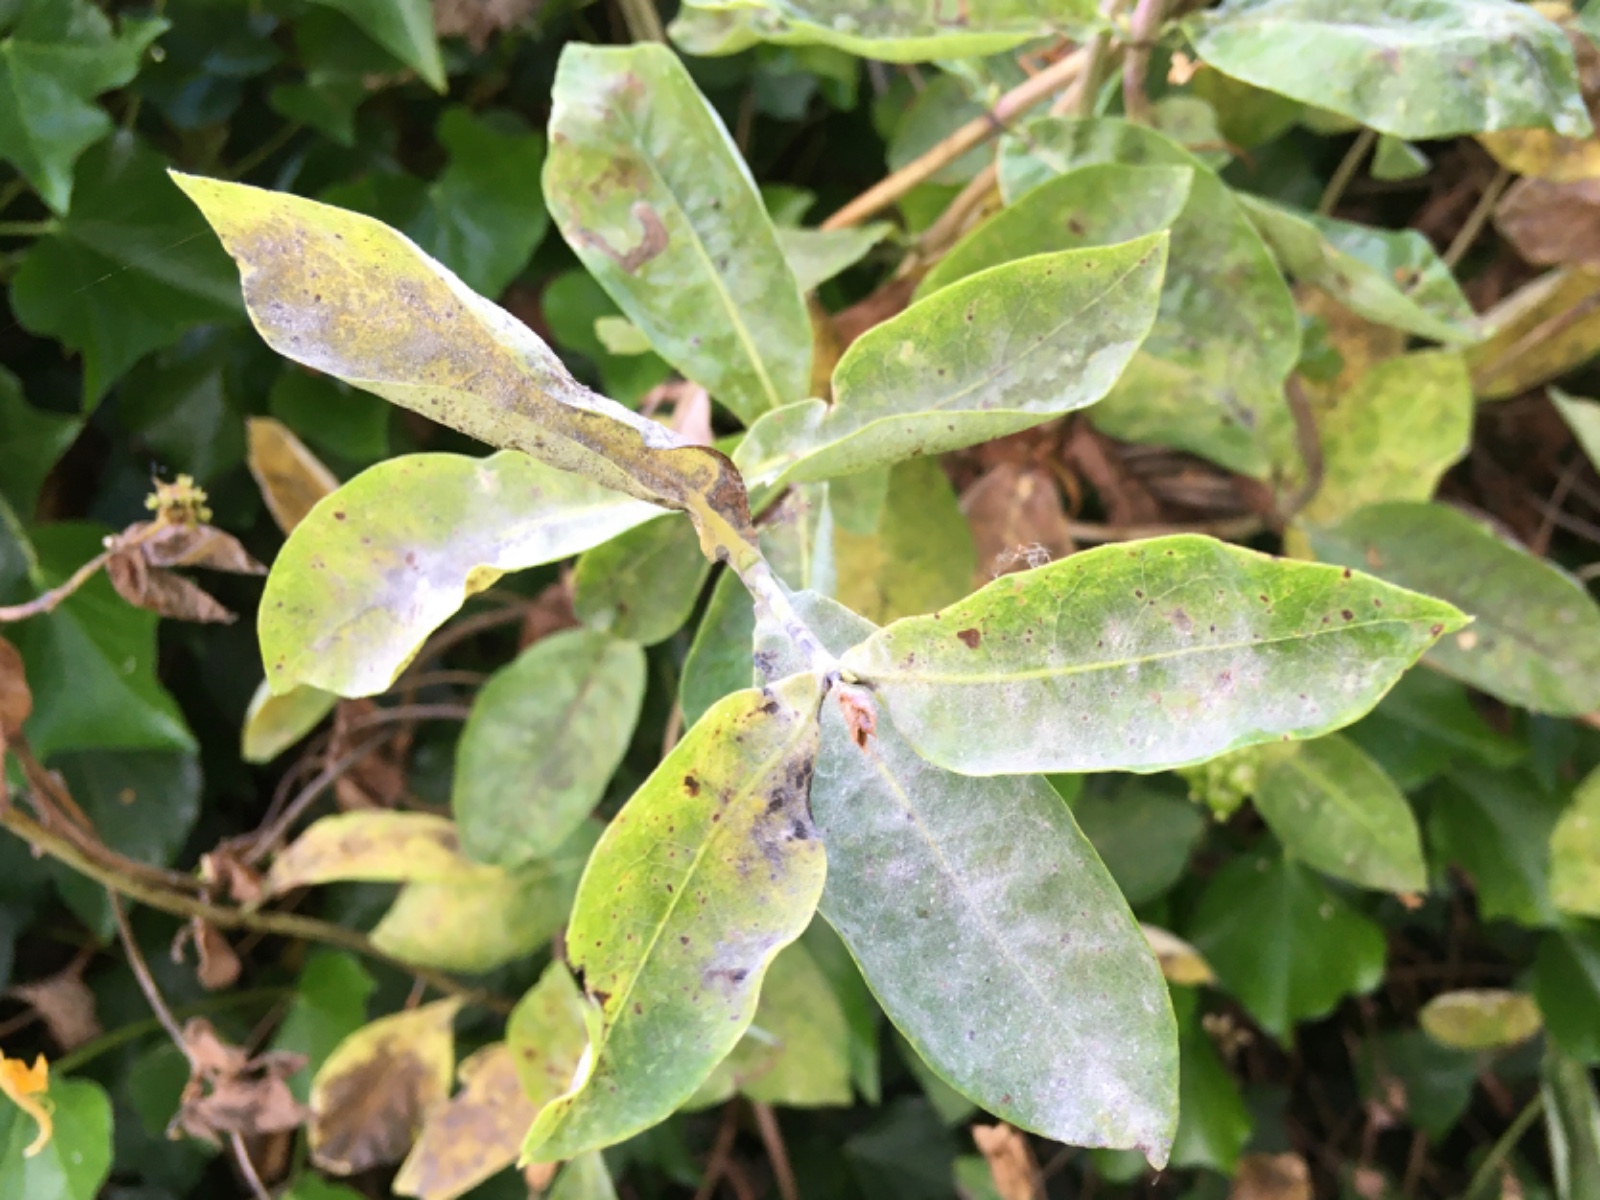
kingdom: Fungi
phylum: Ascomycota
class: Leotiomycetes
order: Helotiales
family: Erysiphaceae
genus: Erysiphe
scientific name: Erysiphe lonicerae
